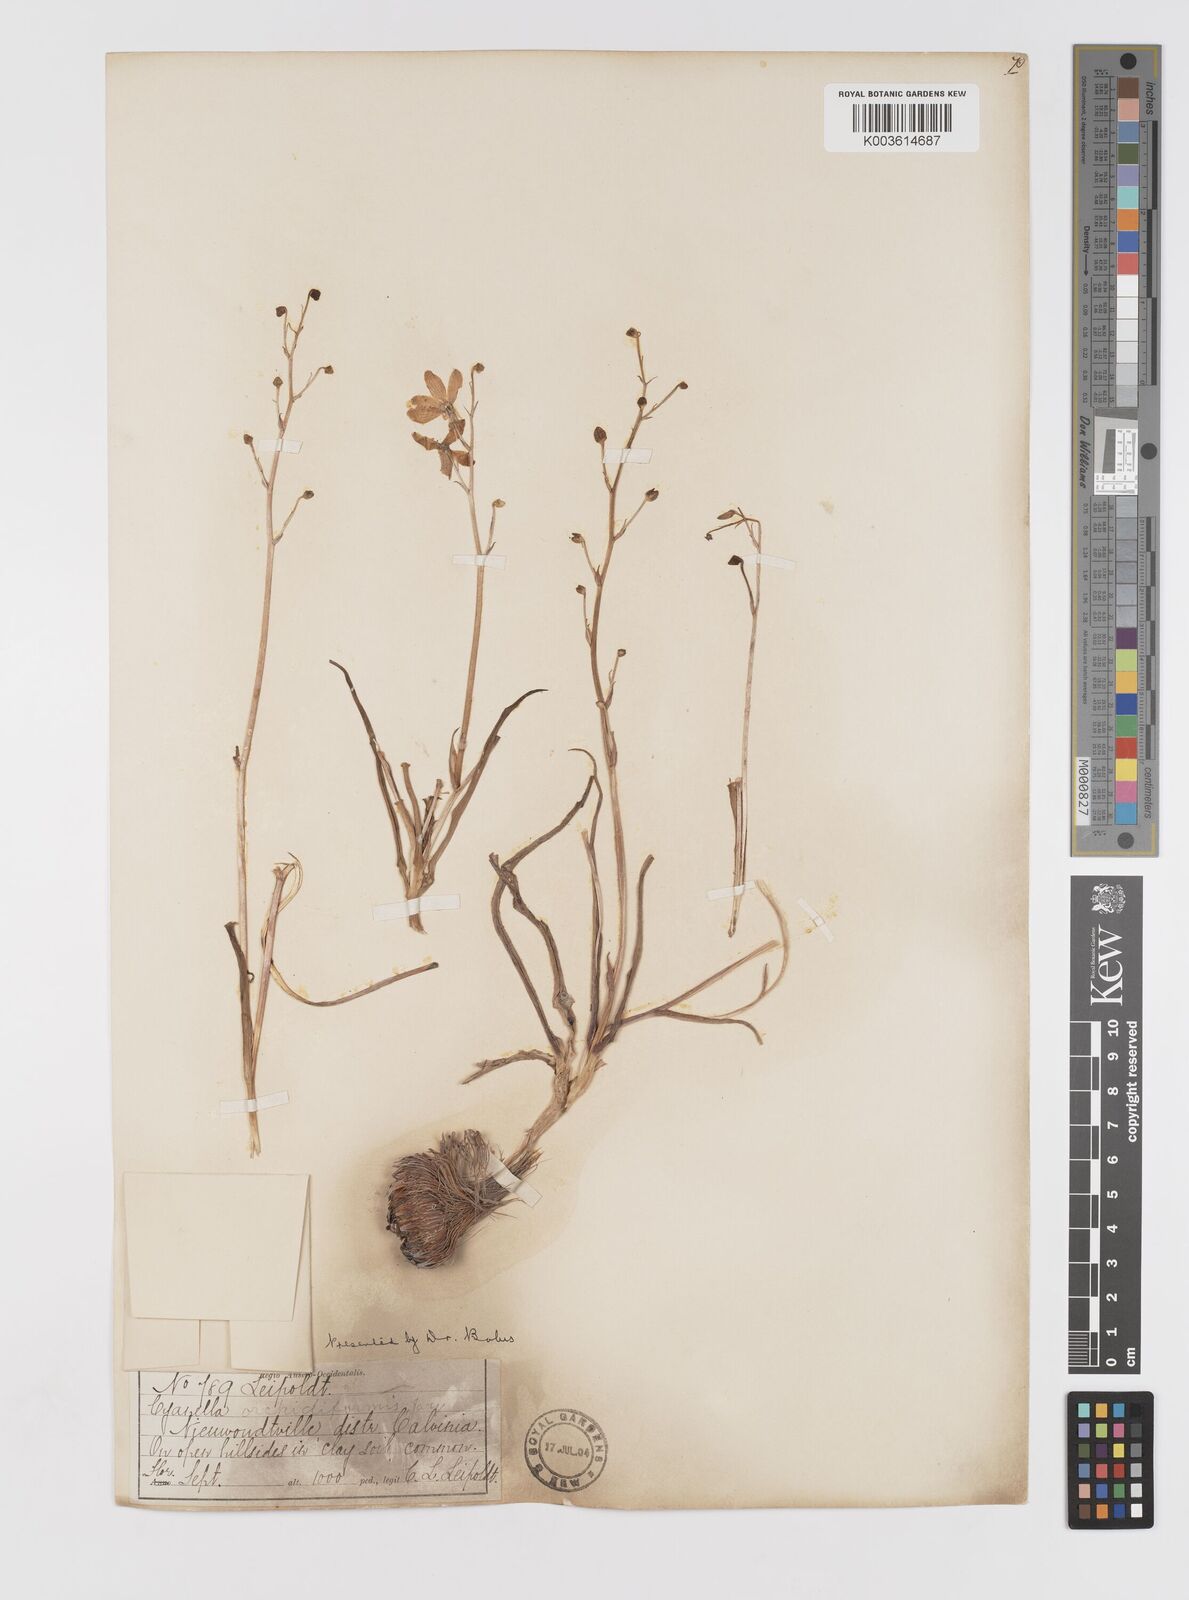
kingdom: Plantae
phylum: Tracheophyta
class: Liliopsida
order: Asparagales
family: Tecophilaeaceae
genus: Cyanella
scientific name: Cyanella orchidiformis
